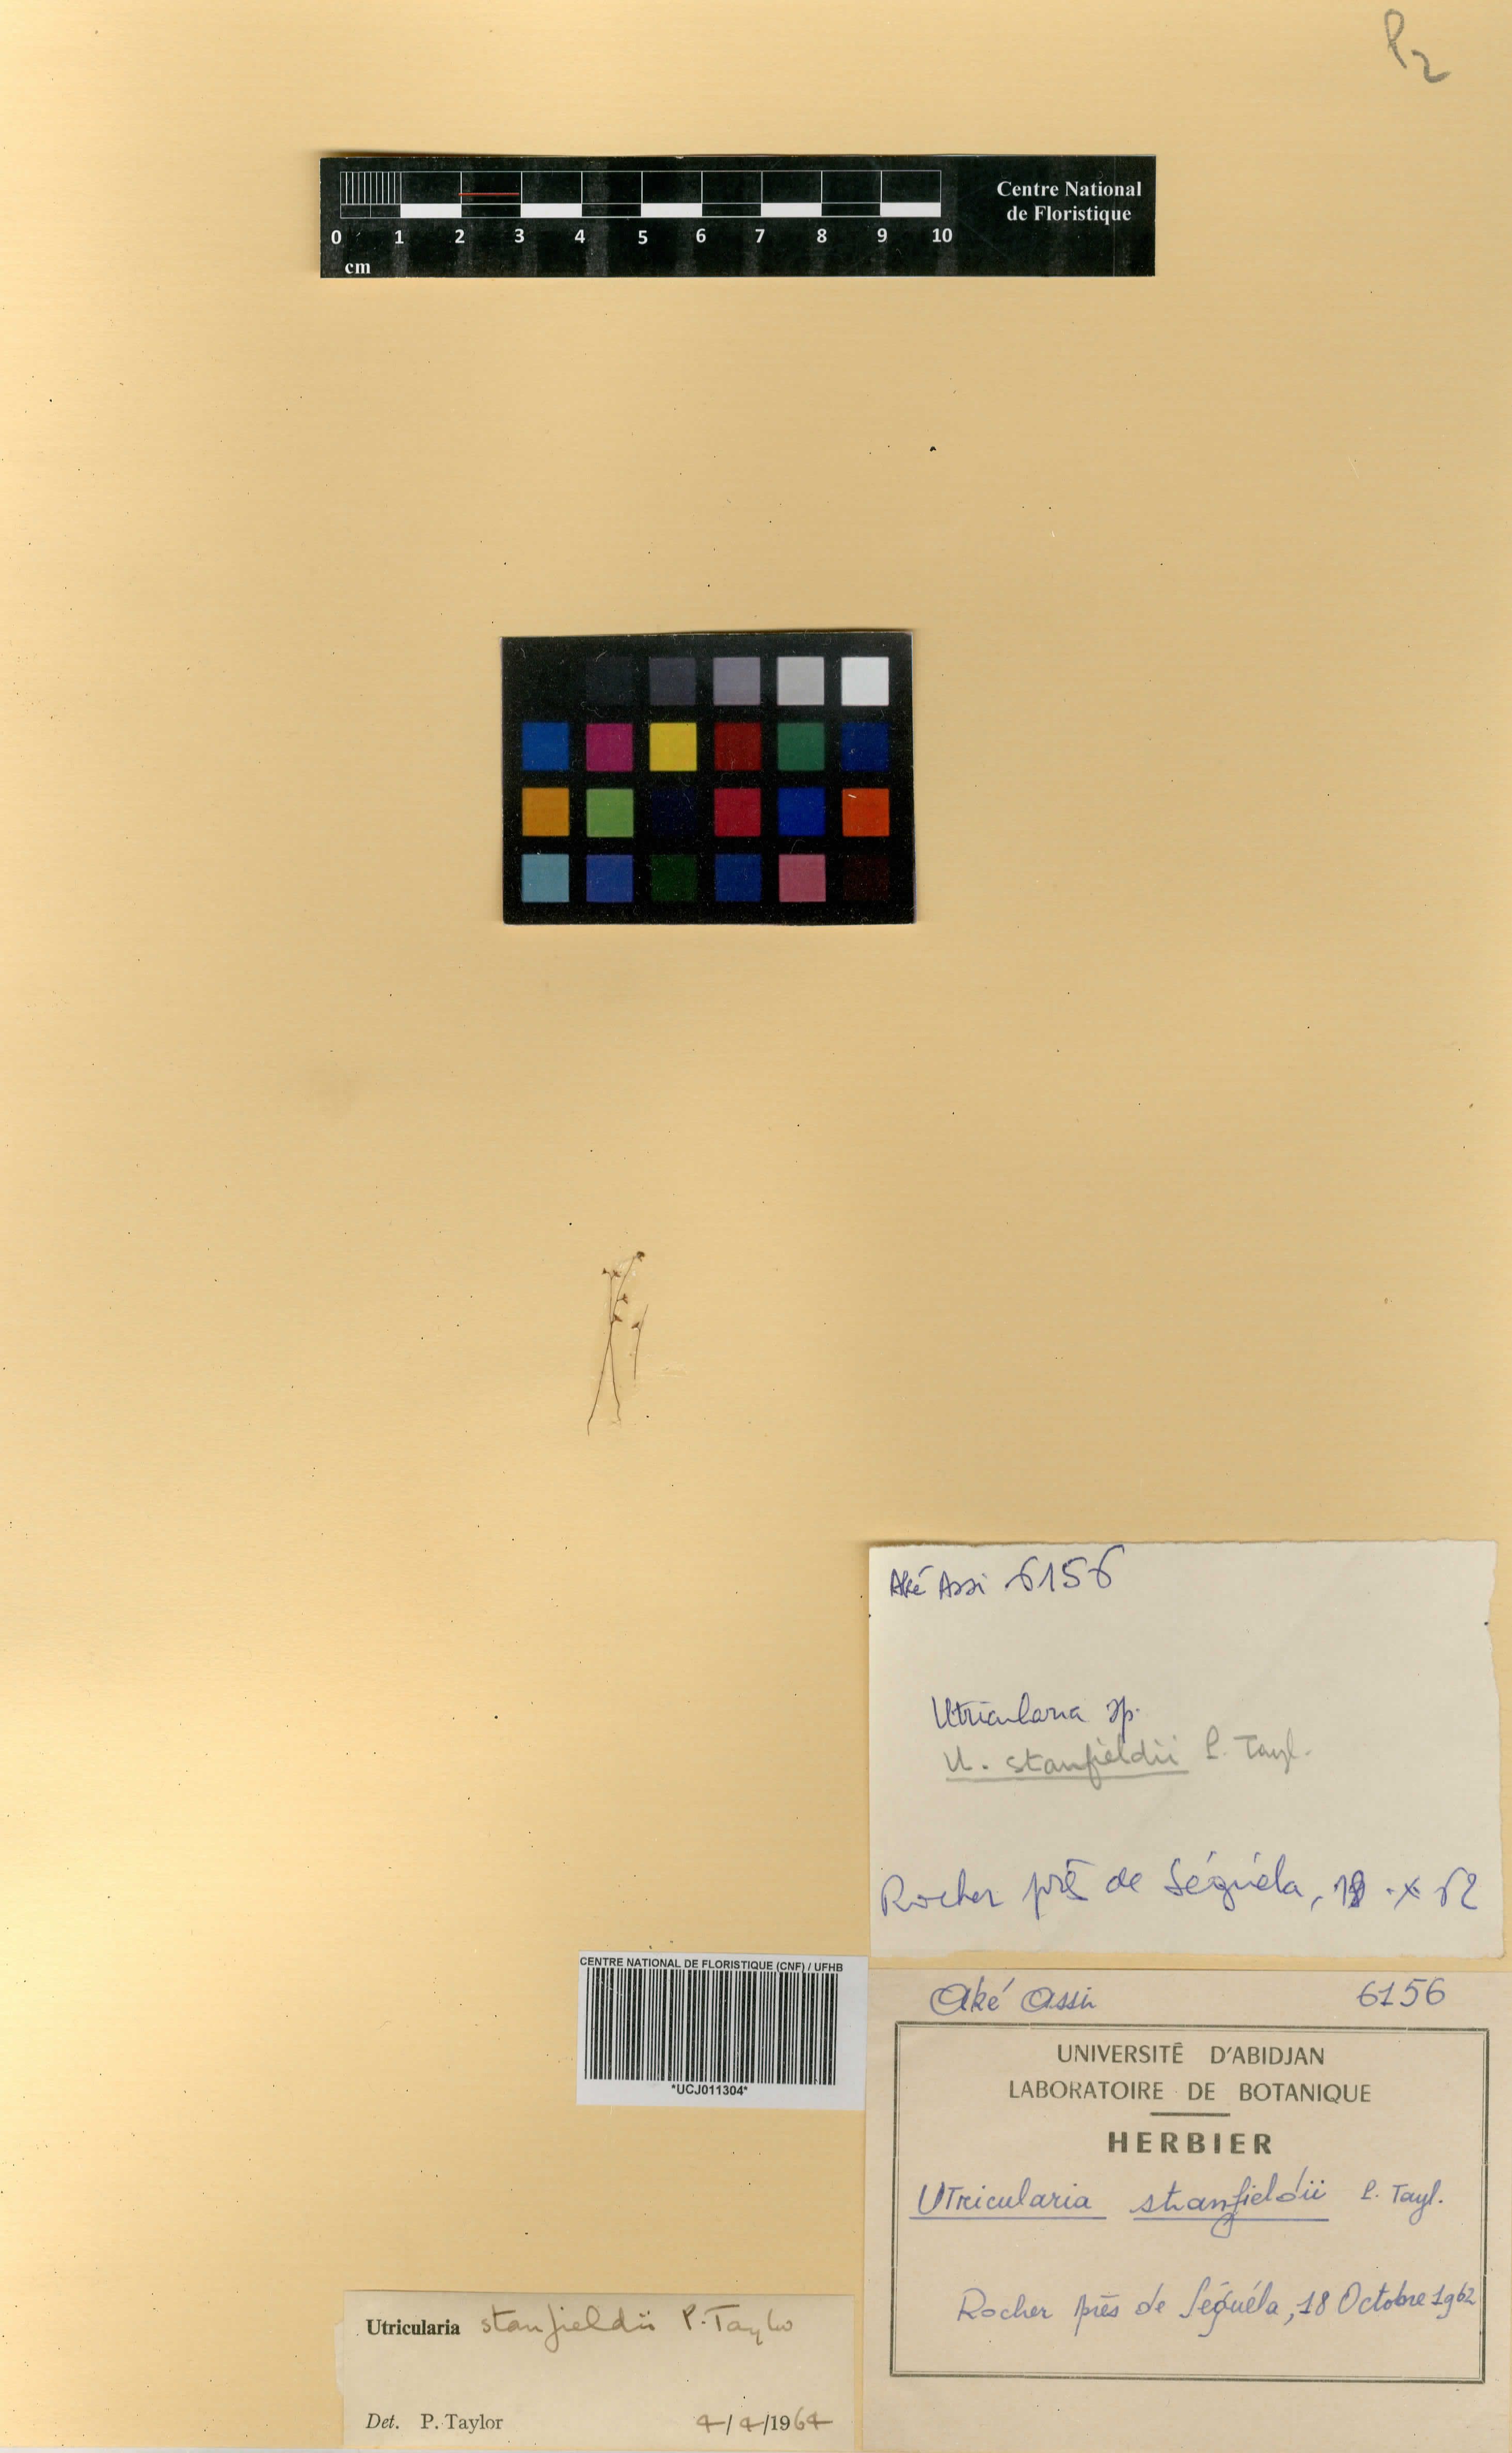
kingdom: Plantae
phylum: Tracheophyta
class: Magnoliopsida
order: Lamiales
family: Lentibulariaceae
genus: Utricularia
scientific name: Utricularia striatula
